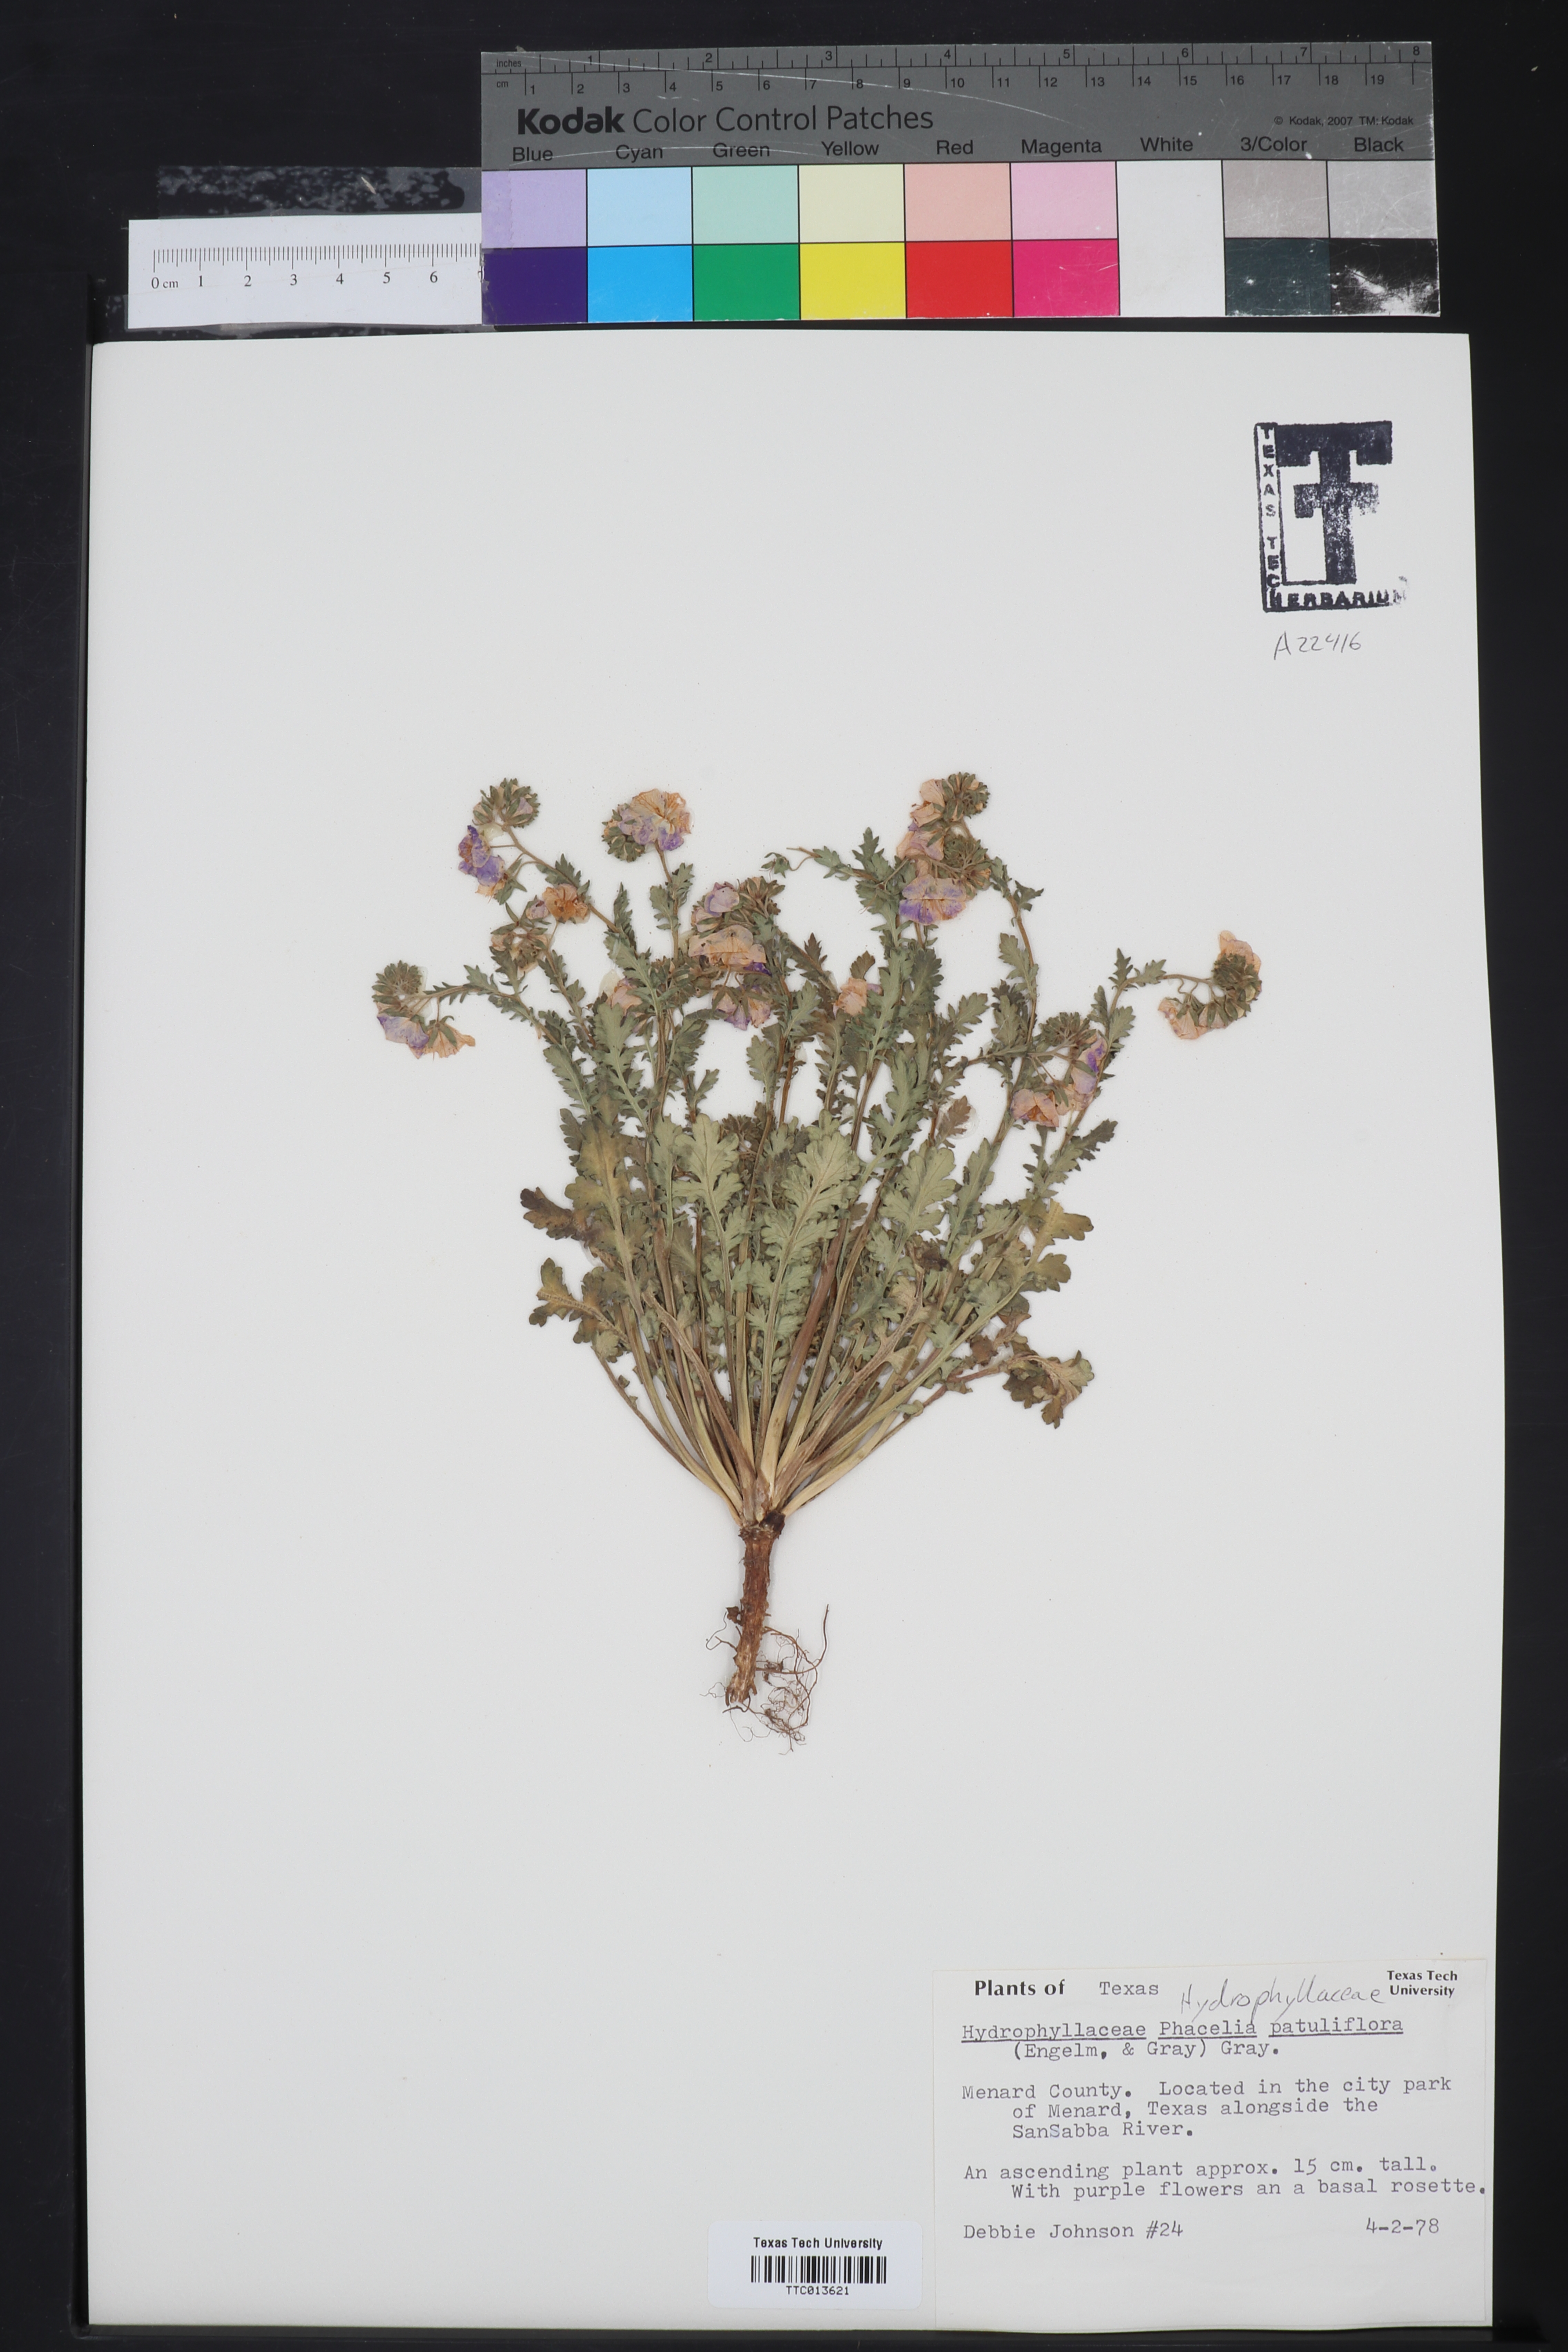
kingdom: Plantae
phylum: Tracheophyta
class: Magnoliopsida
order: Boraginales
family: Hydrophyllaceae
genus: Phacelia
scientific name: Phacelia patuliflora
